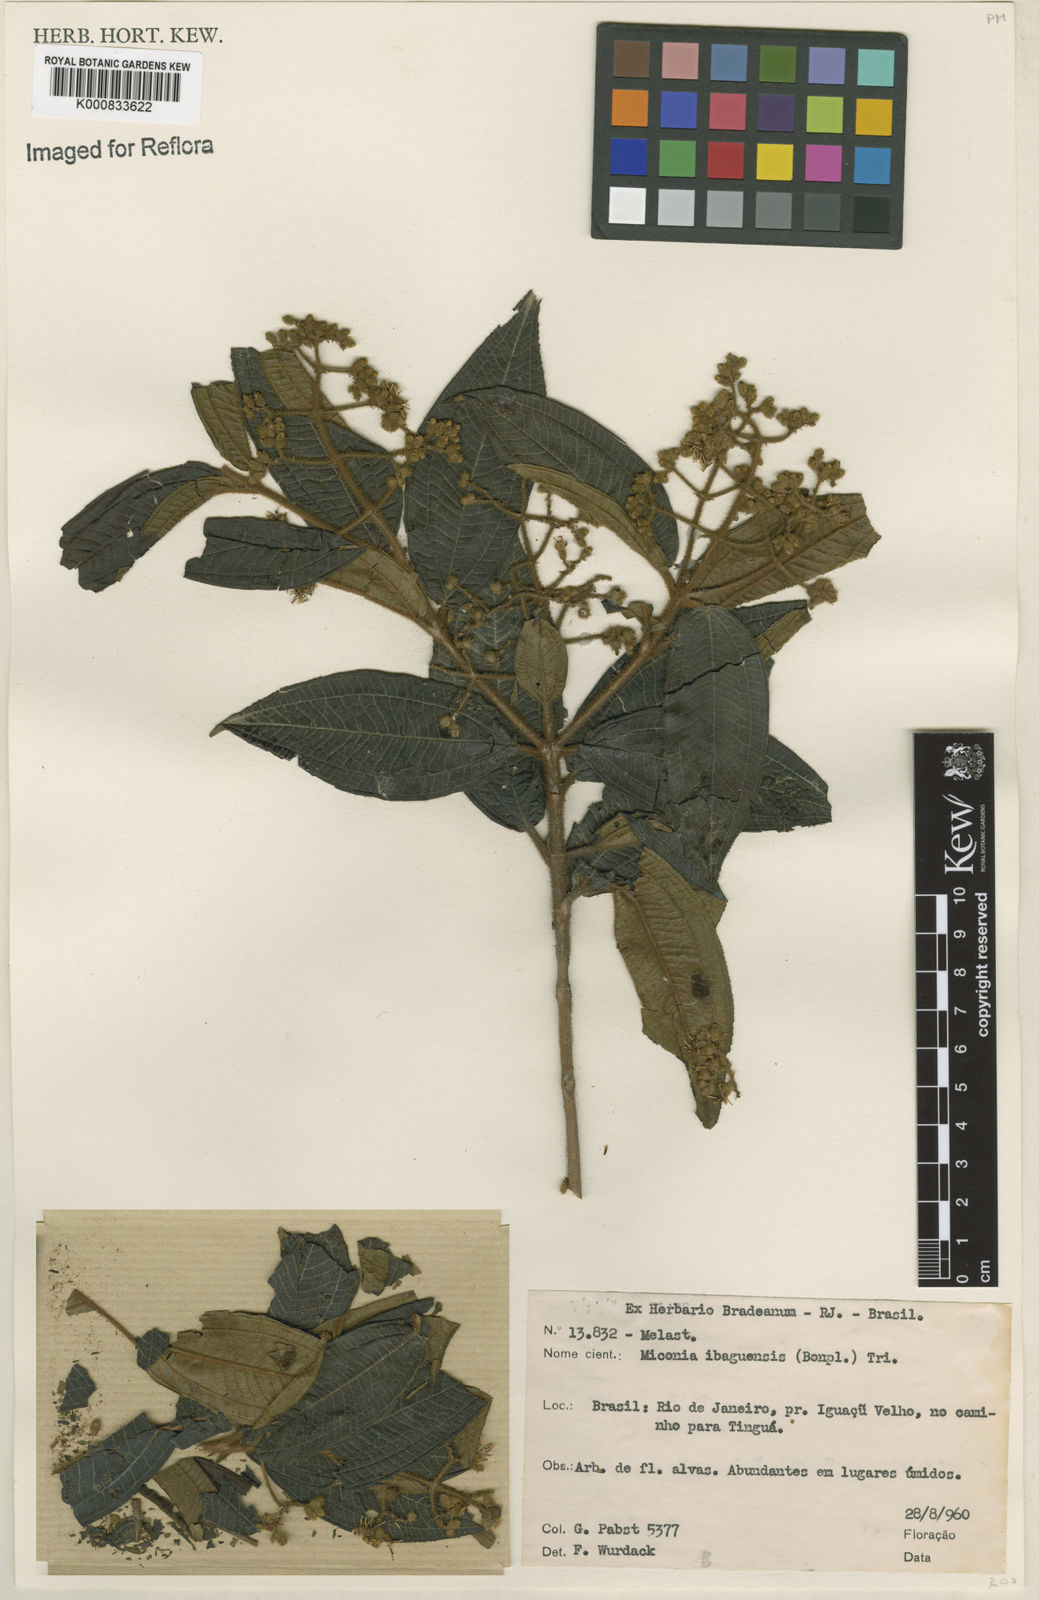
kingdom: Plantae
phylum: Tracheophyta
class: Magnoliopsida
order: Myrtales
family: Melastomataceae
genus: Miconia
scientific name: Miconia ibaguensis
